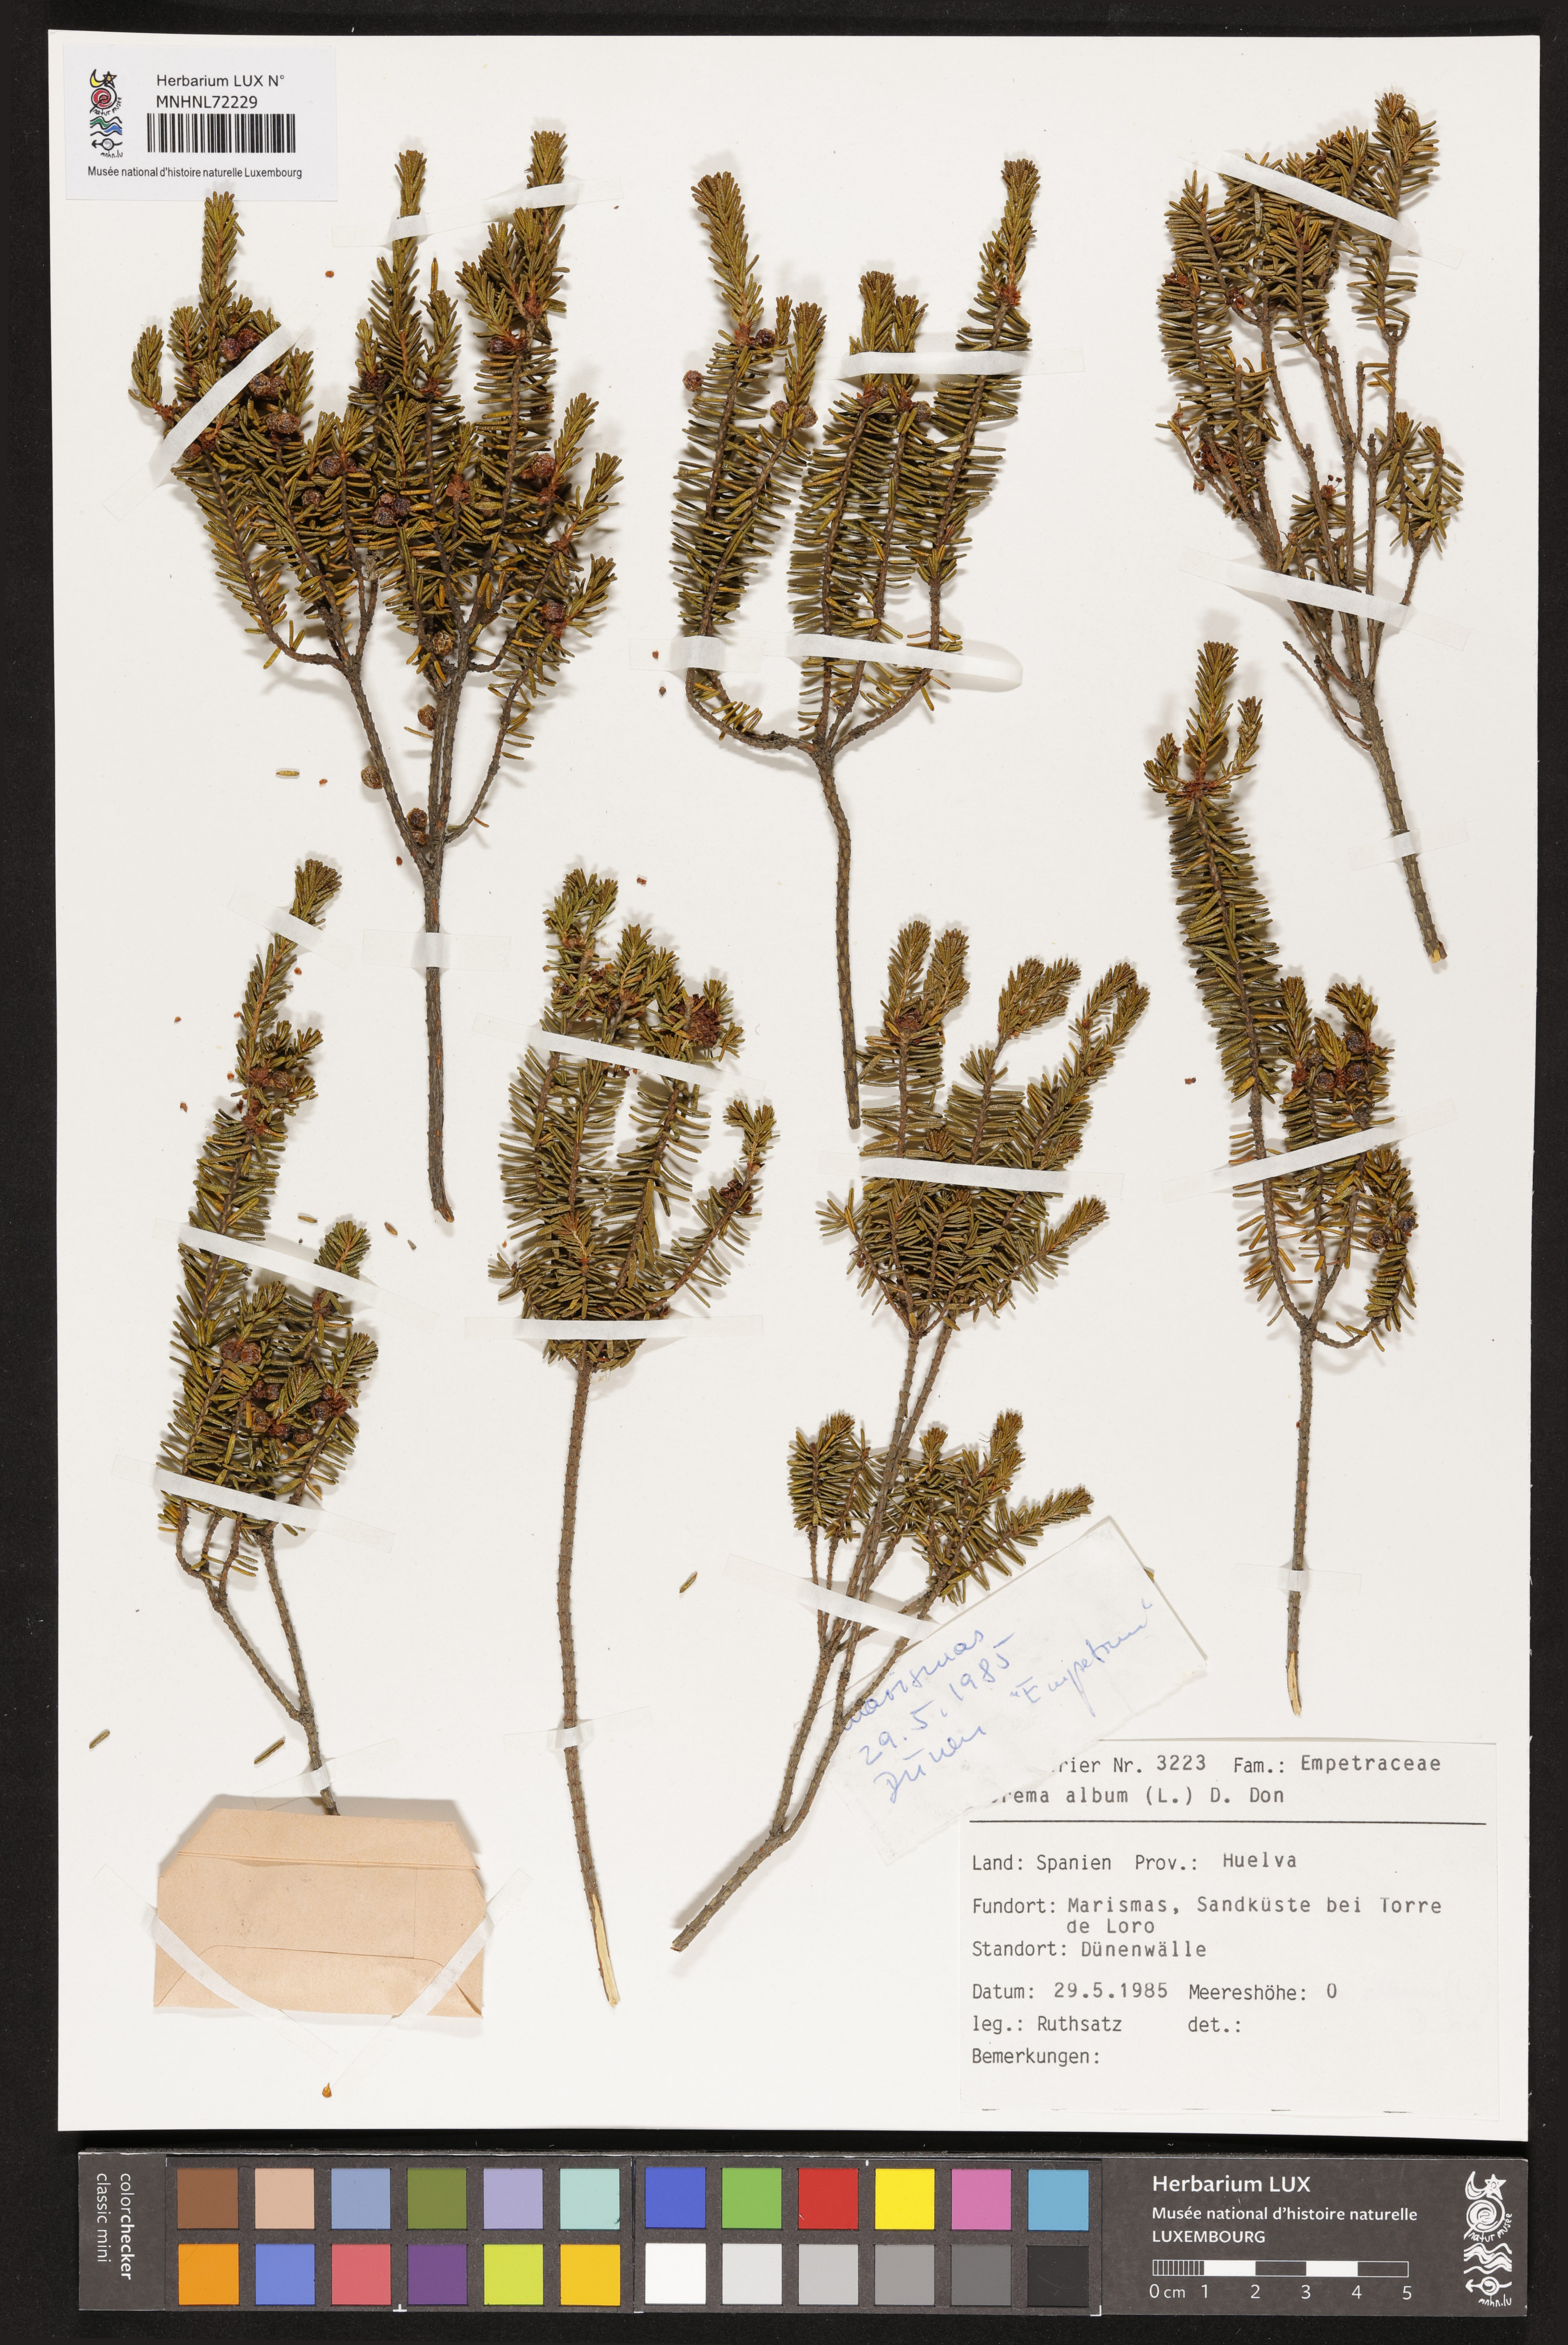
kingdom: Plantae
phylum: Tracheophyta
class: Magnoliopsida
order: Ericales
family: Ericaceae
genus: Corema
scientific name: Corema album
